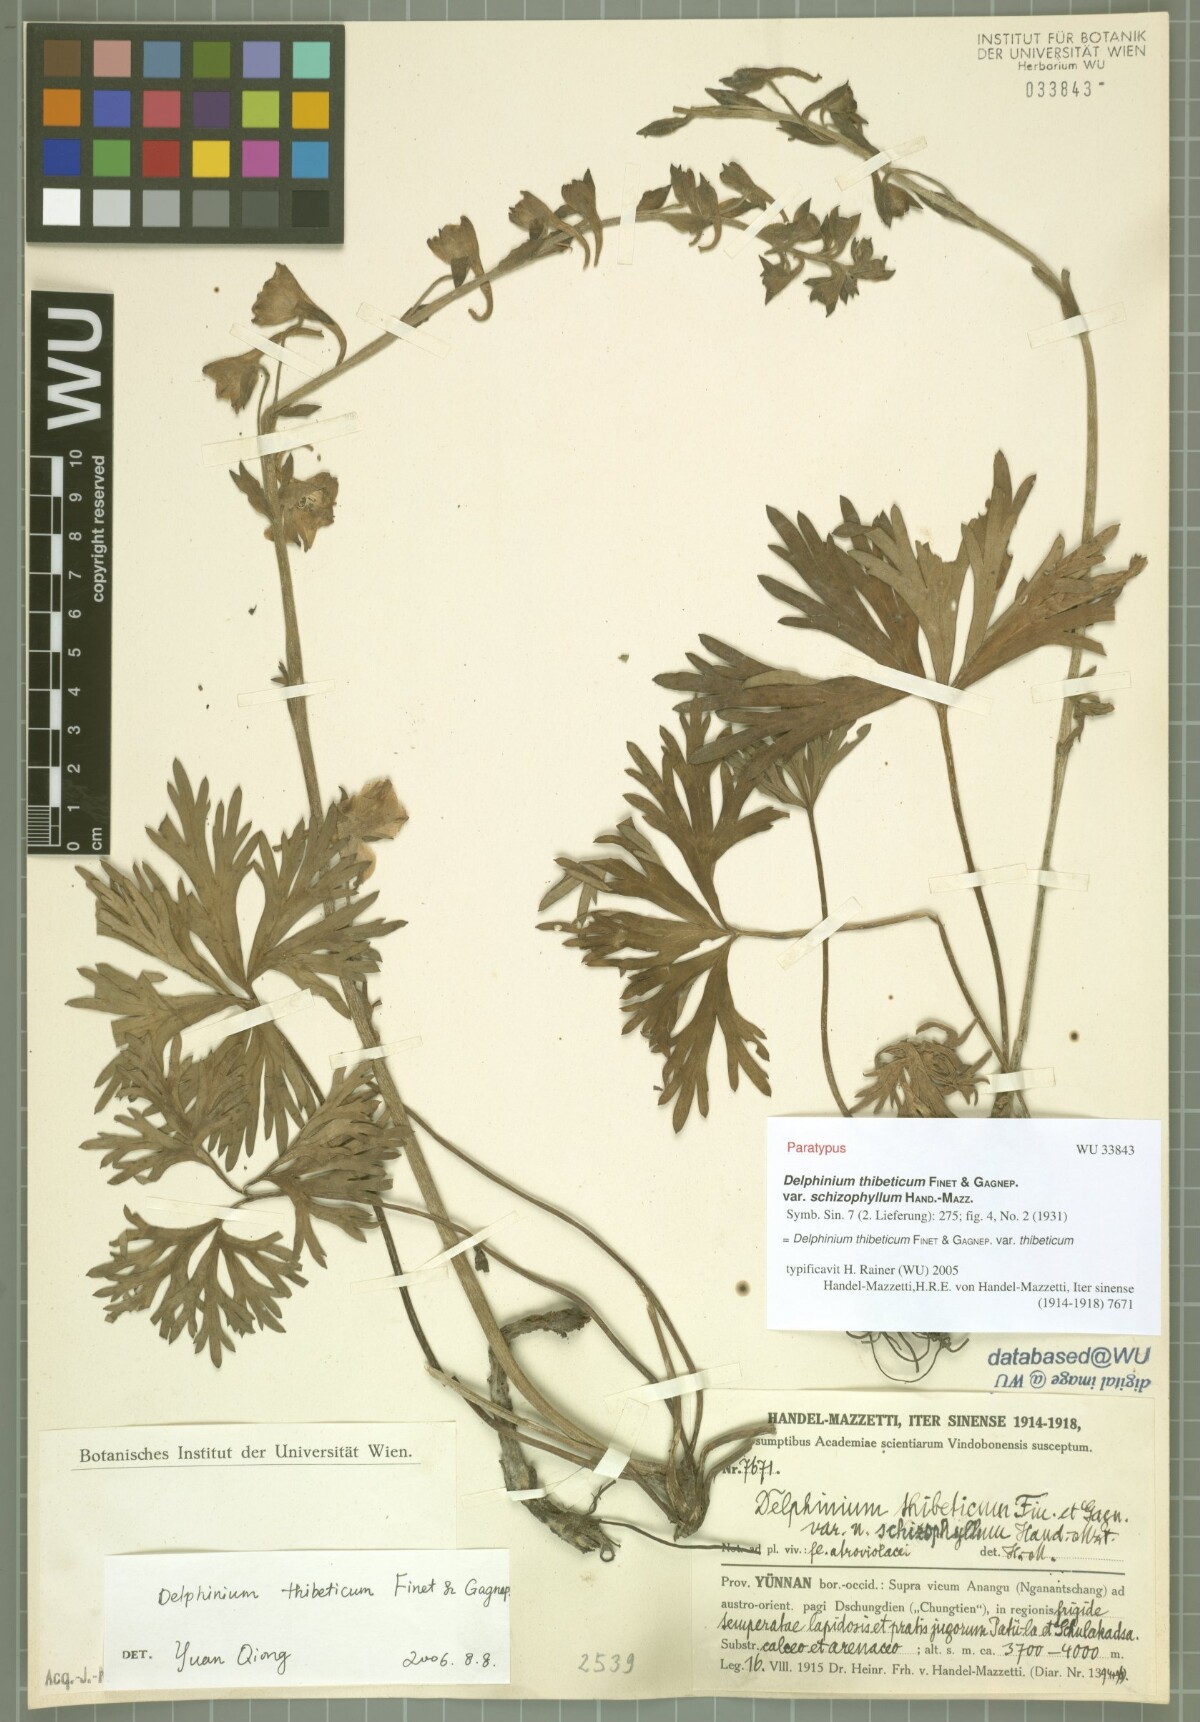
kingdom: Plantae
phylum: Tracheophyta
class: Magnoliopsida
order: Ranunculales
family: Ranunculaceae
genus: Delphinium
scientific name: Delphinium thibeticum
